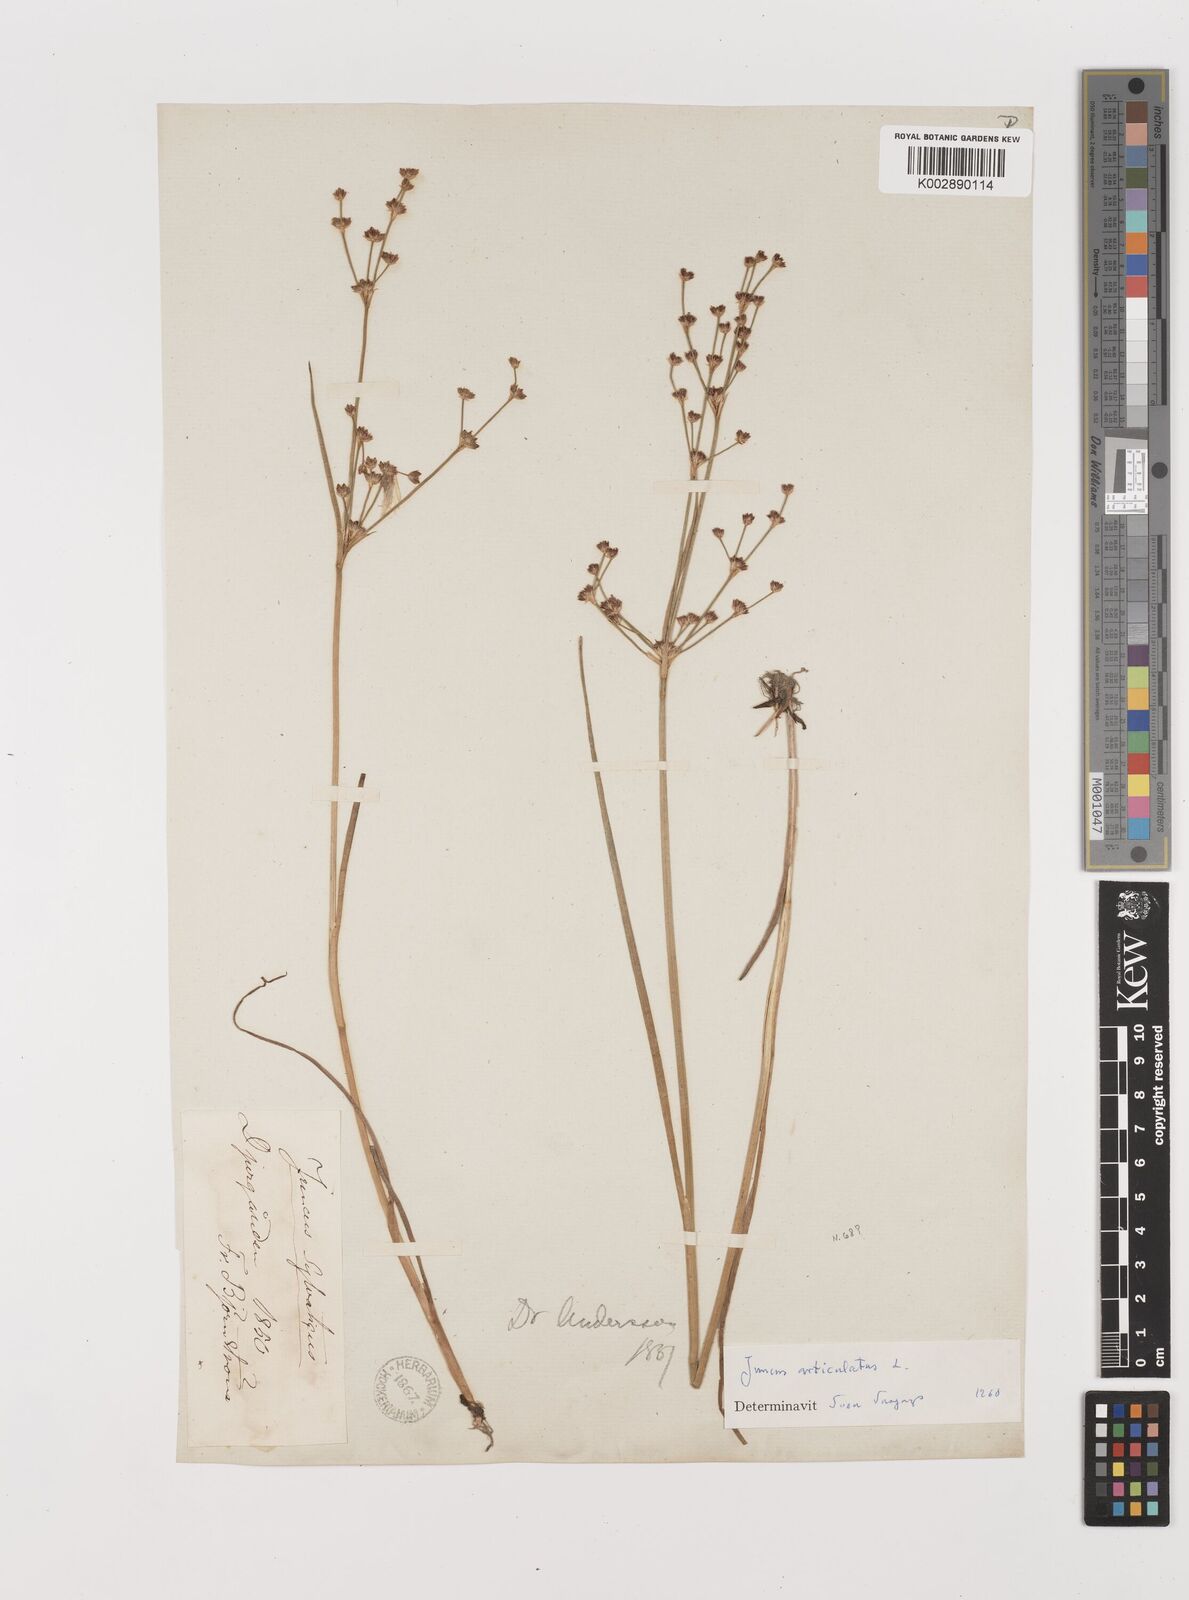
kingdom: Plantae
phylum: Tracheophyta
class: Liliopsida
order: Poales
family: Juncaceae
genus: Juncus
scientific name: Juncus articulatus
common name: Jointed rush
